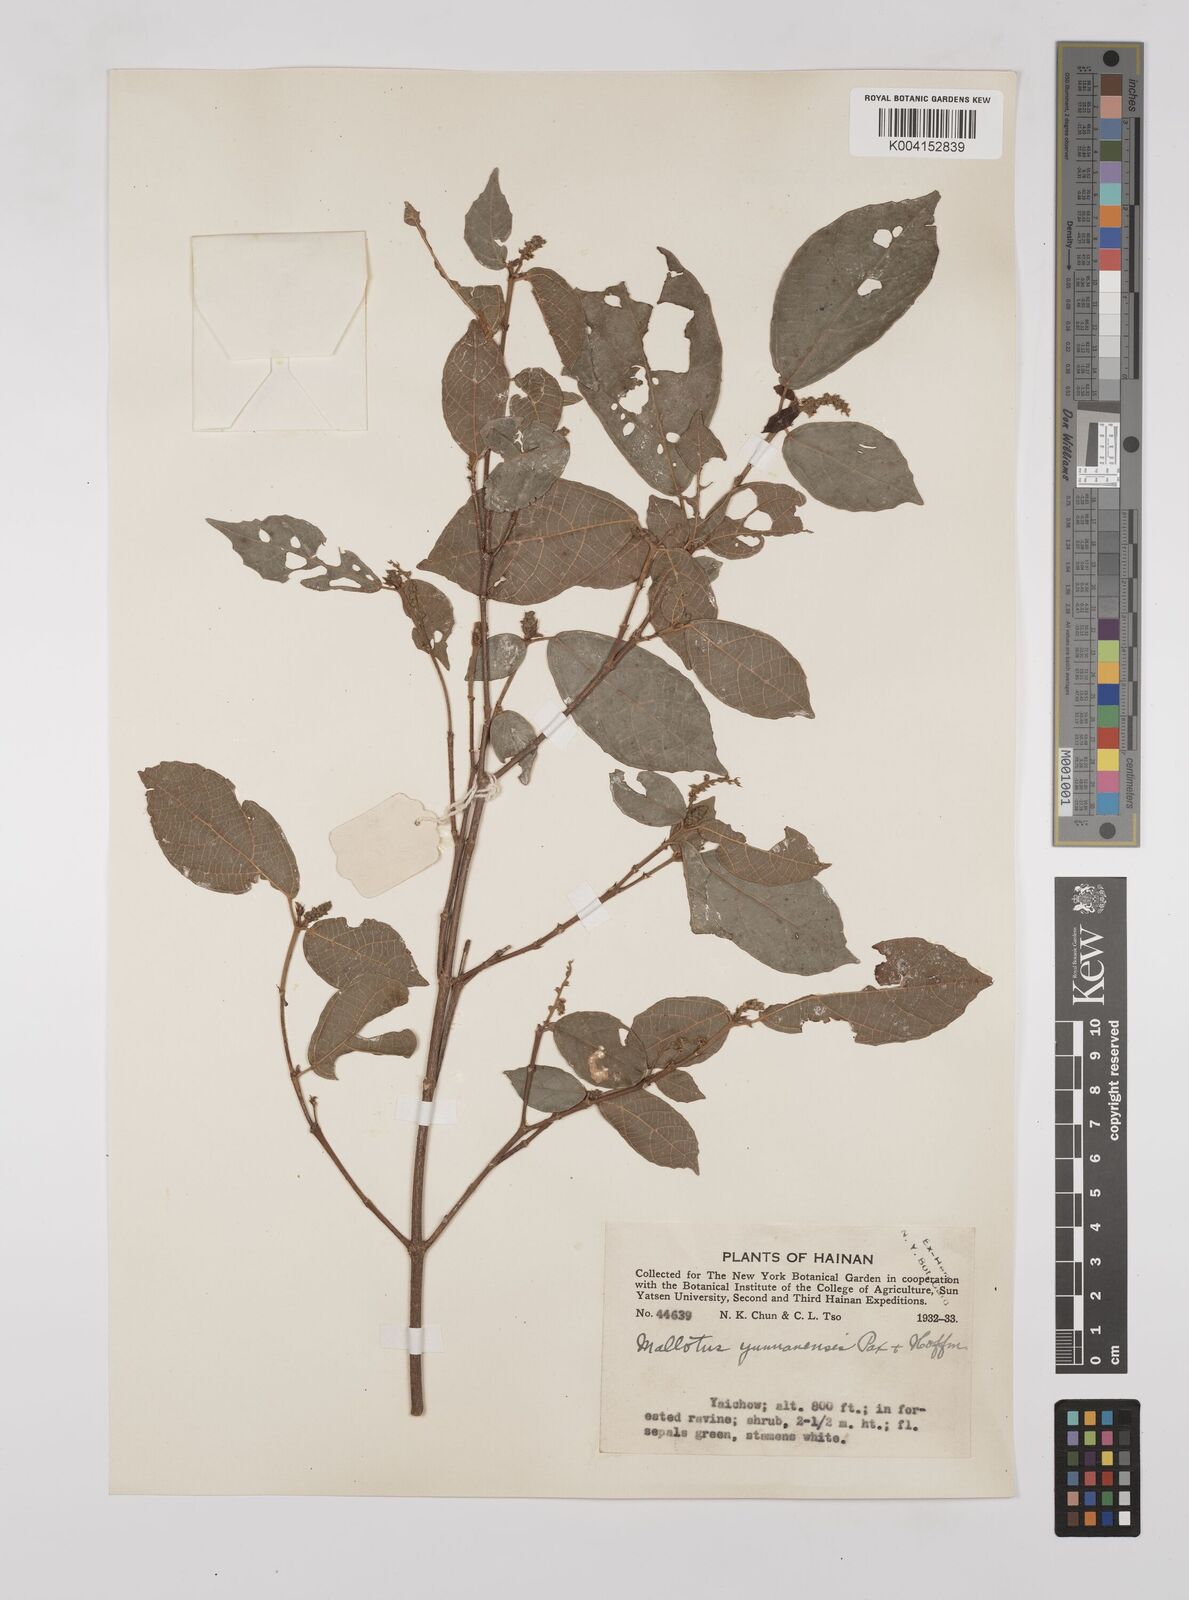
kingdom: Plantae
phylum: Tracheophyta
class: Magnoliopsida
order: Malpighiales
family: Euphorbiaceae
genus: Mallotus
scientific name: Mallotus yunnanensis
